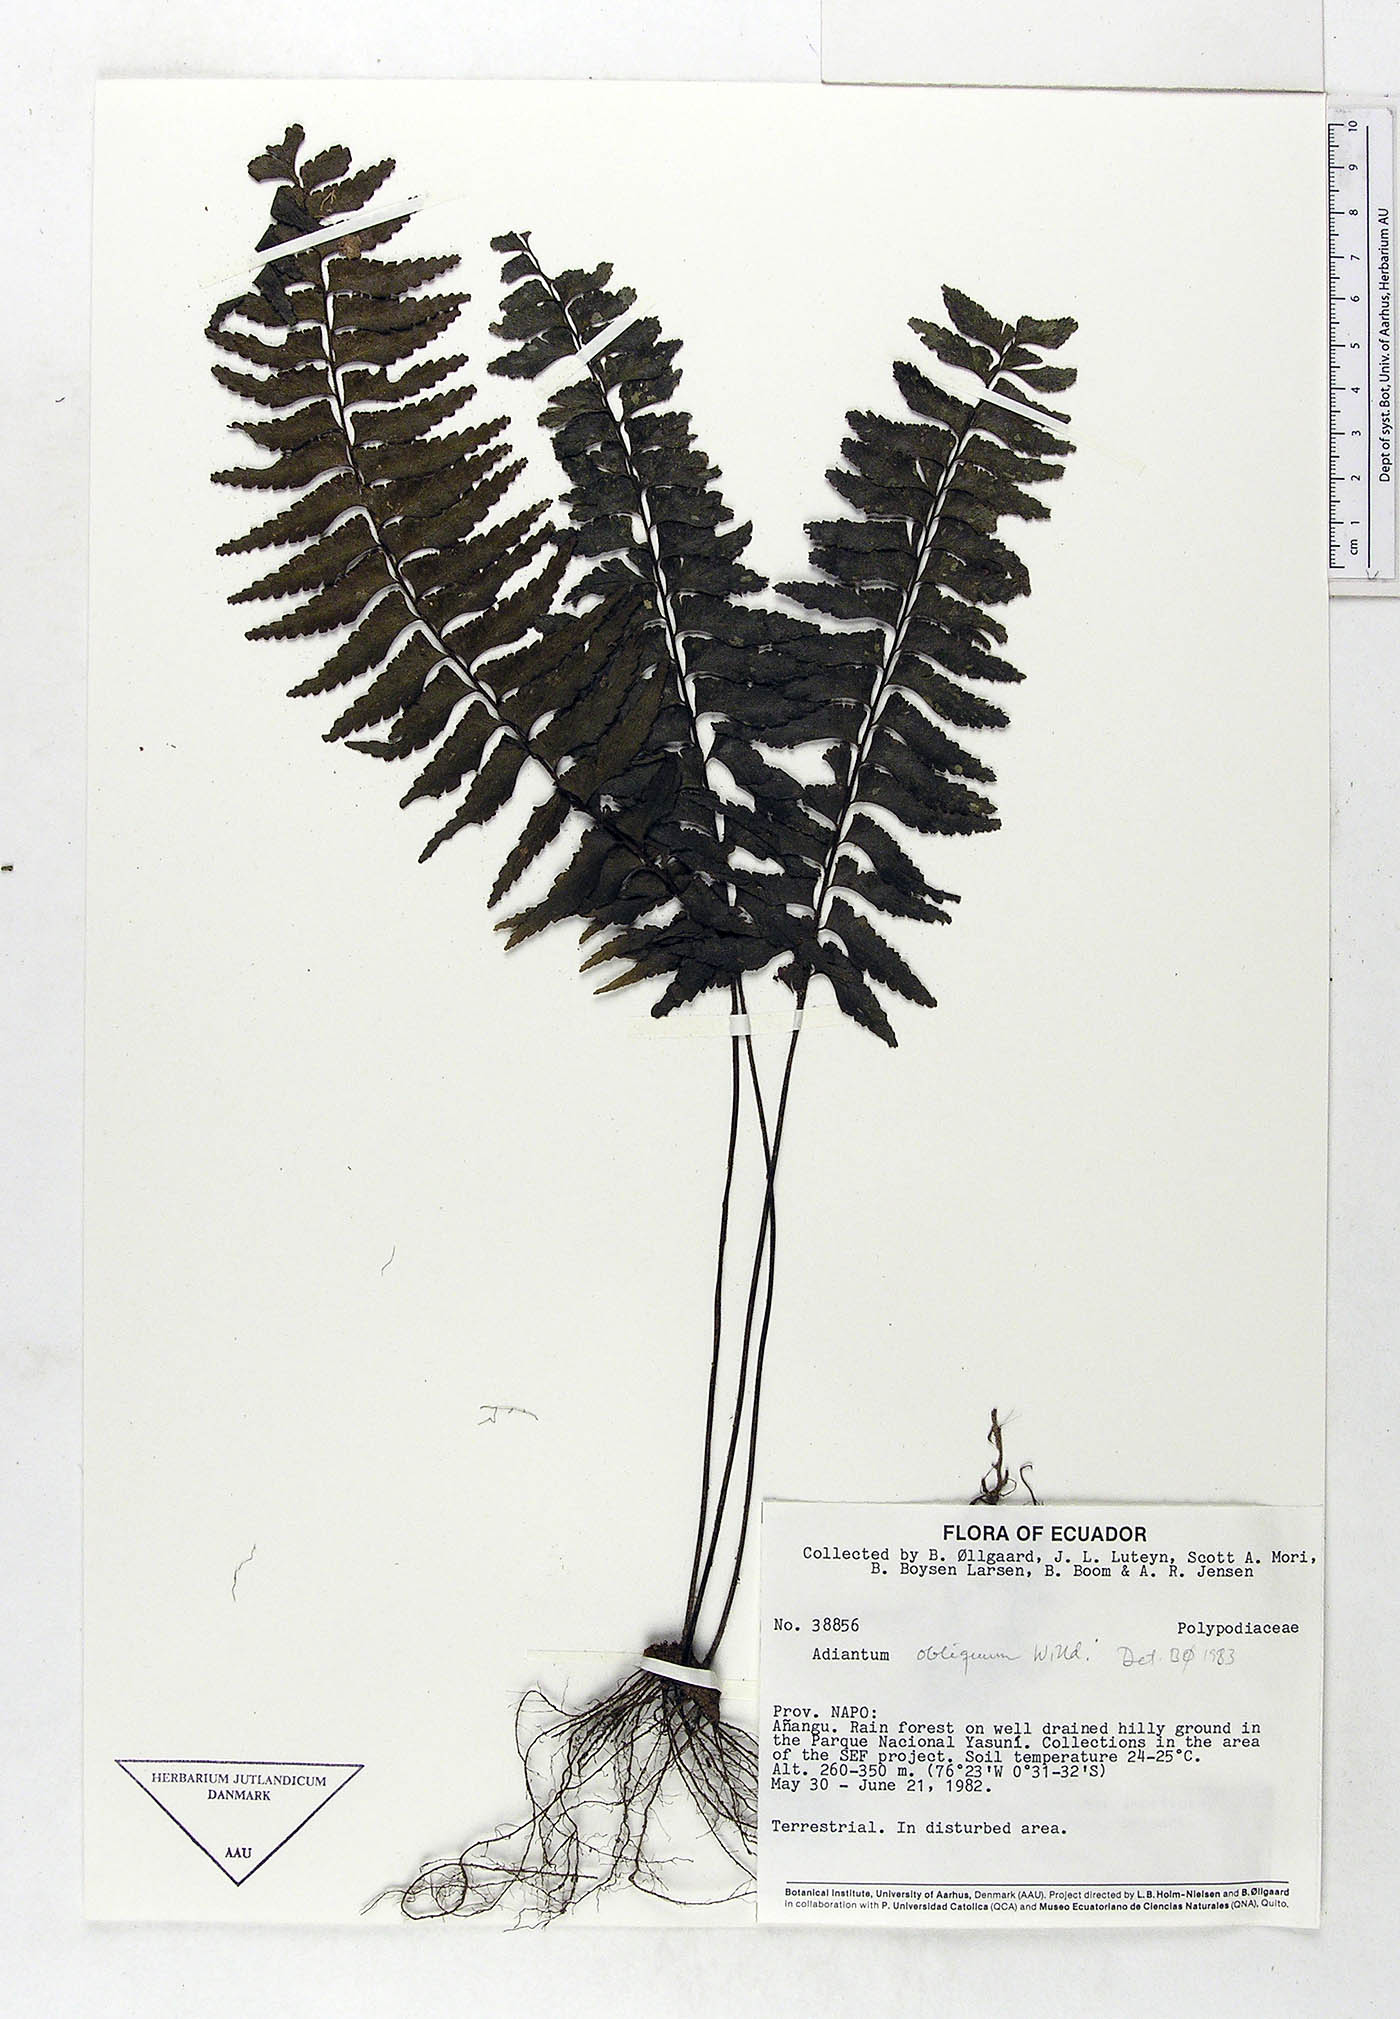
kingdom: Plantae
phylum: Tracheophyta
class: Polypodiopsida
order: Polypodiales
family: Pteridaceae
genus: Adiantum
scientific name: Adiantum obliquum
